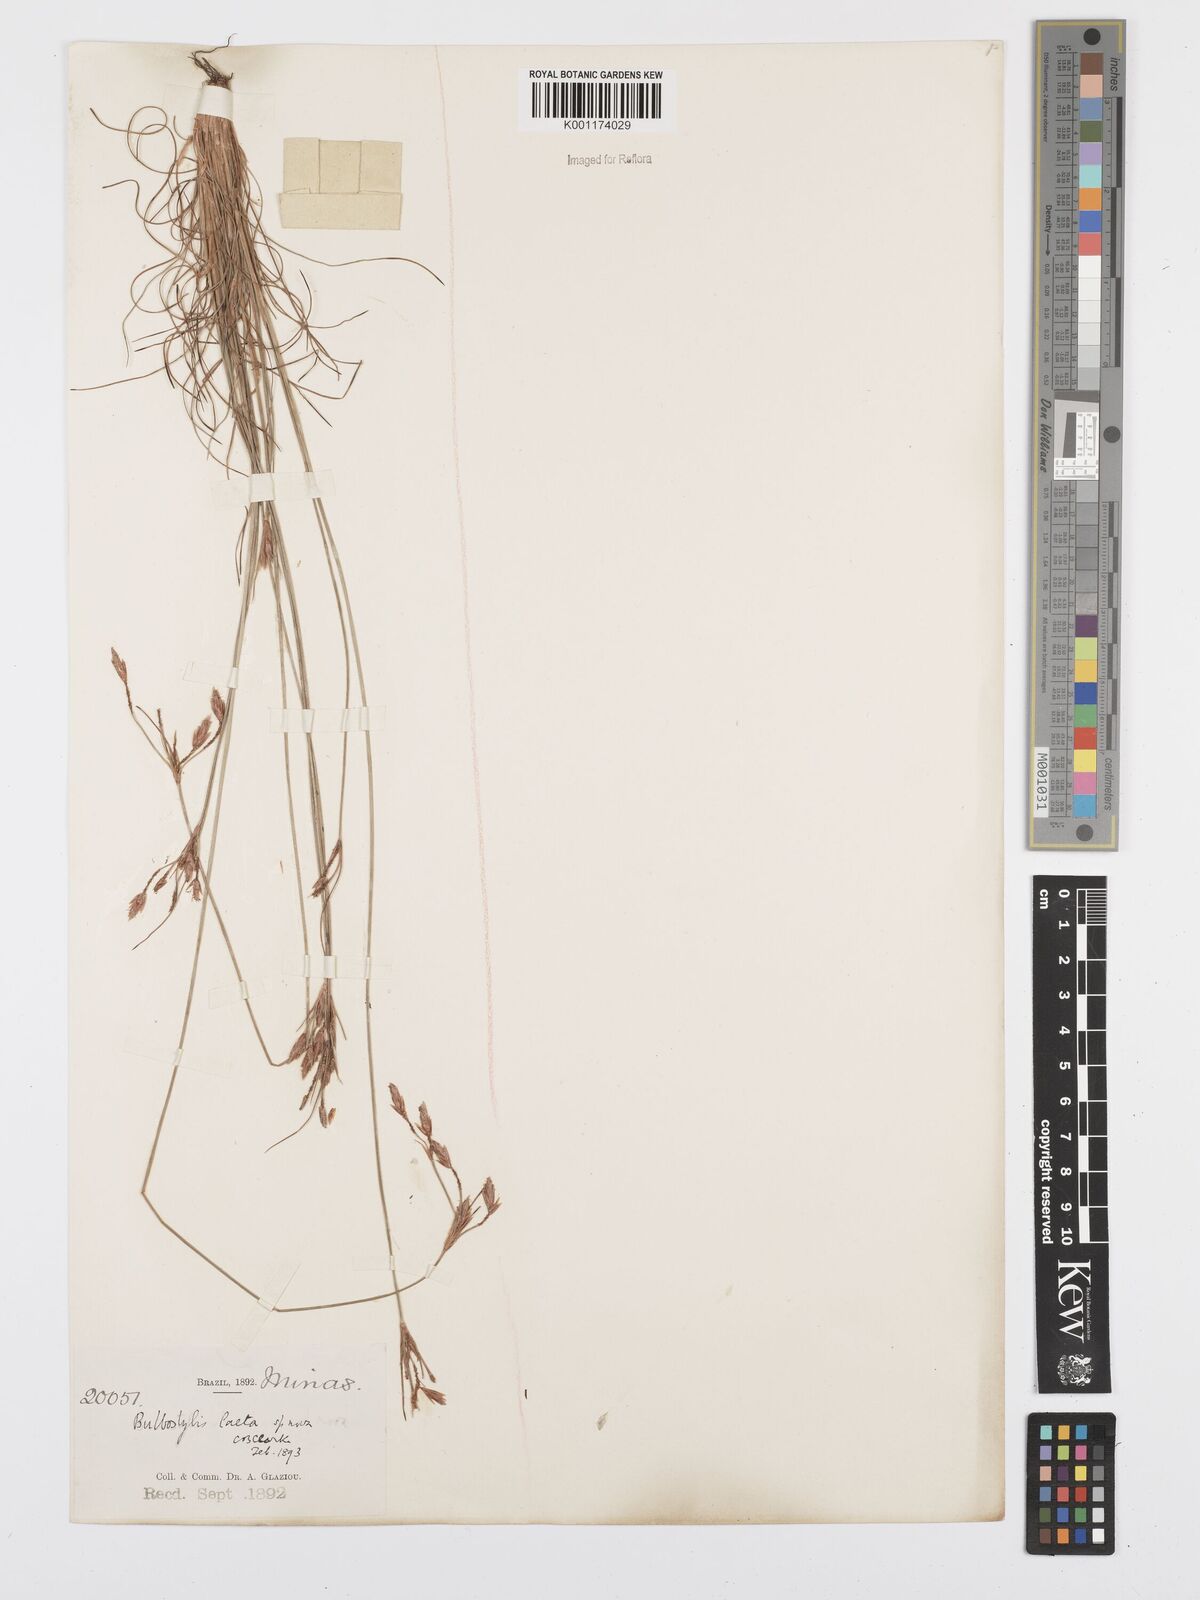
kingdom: Plantae
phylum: Tracheophyta
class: Liliopsida
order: Poales
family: Cyperaceae
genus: Bulbostylis
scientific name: Bulbostylis laeta
